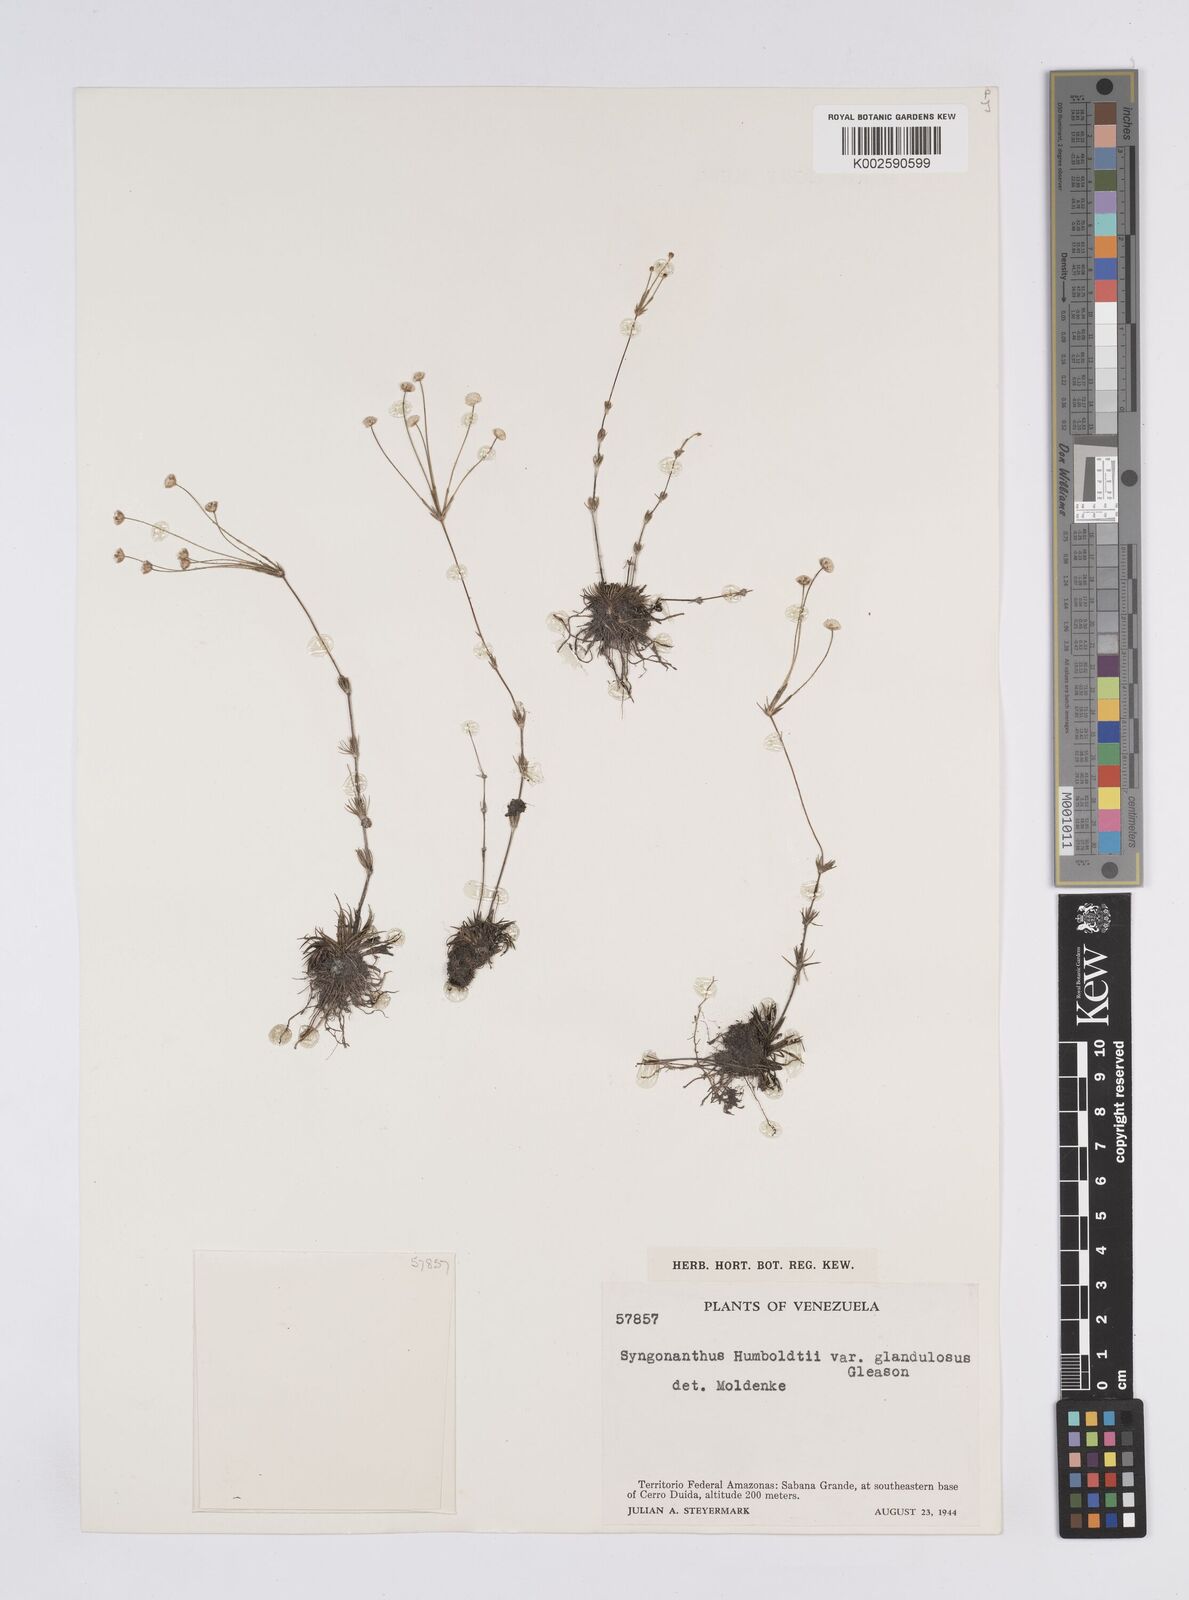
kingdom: Plantae
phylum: Tracheophyta
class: Liliopsida
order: Poales
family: Eriocaulaceae
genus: Syngonanthus
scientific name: Syngonanthus humboldtii
